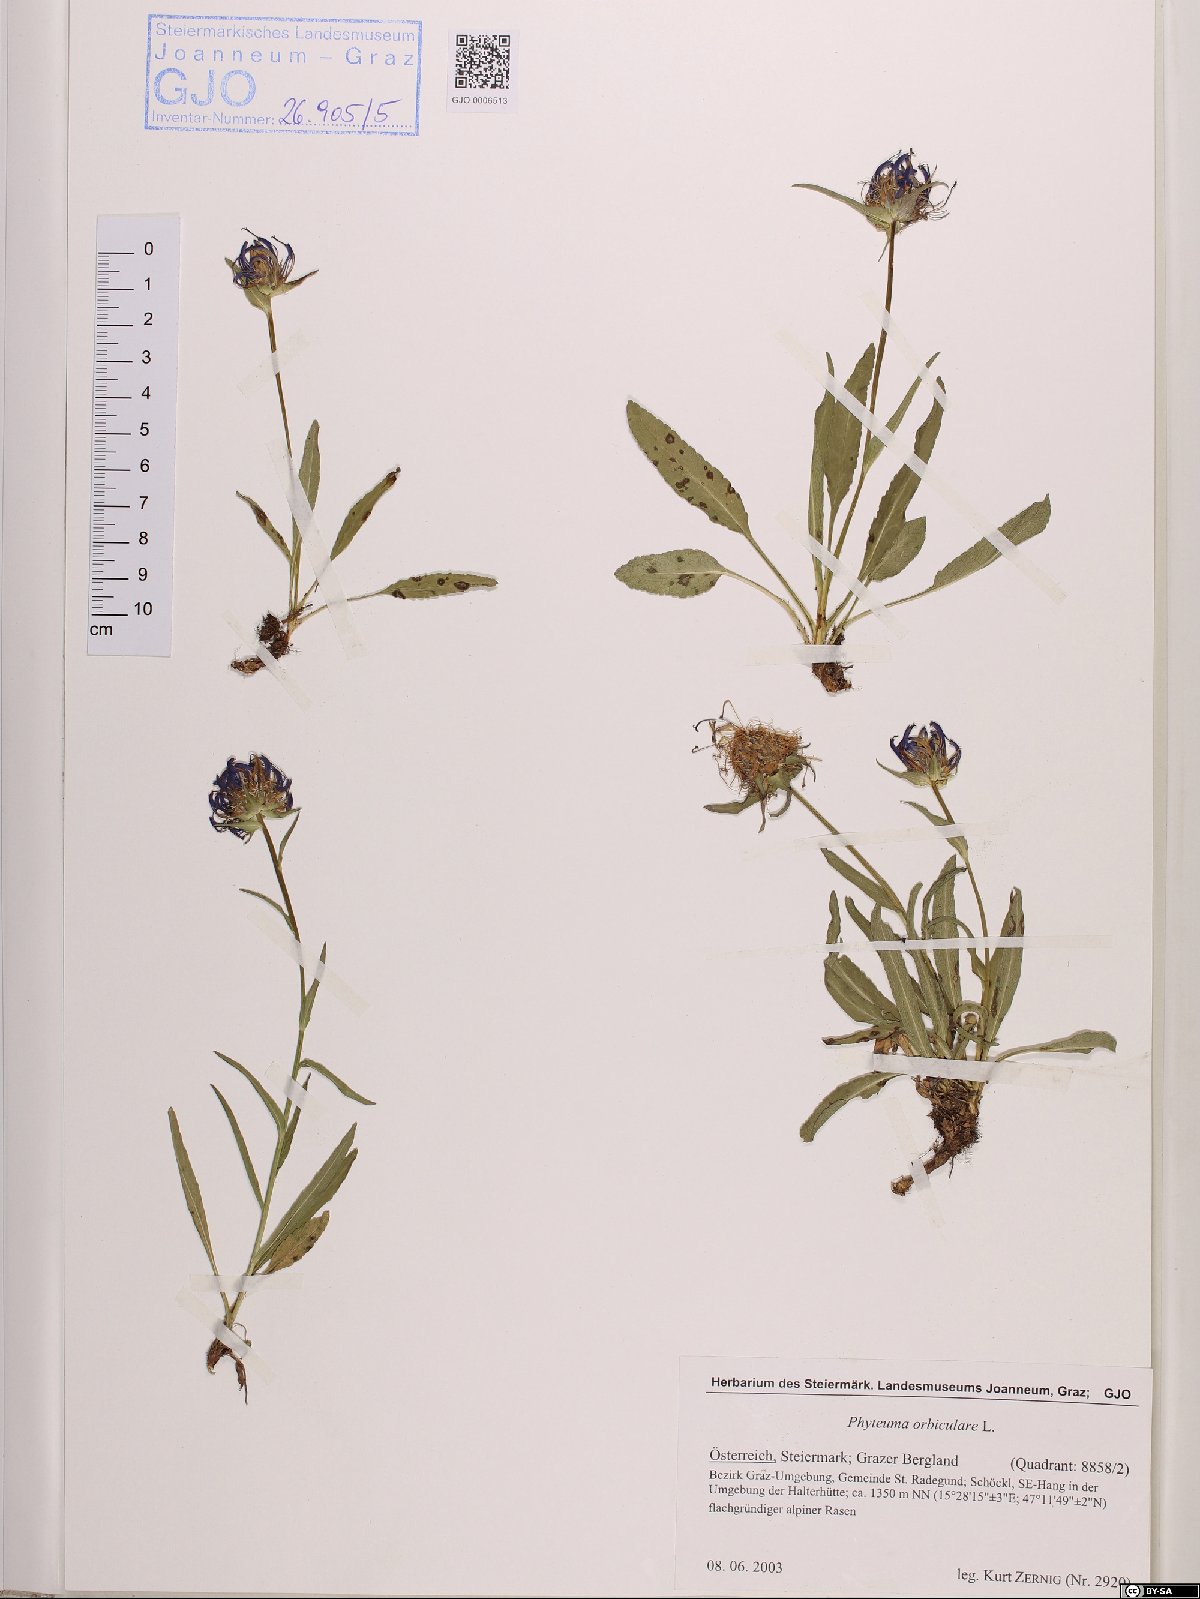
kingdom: Plantae
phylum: Tracheophyta
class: Magnoliopsida
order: Asterales
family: Campanulaceae
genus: Phyteuma
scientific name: Phyteuma orbiculare
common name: Round-headed rampion
